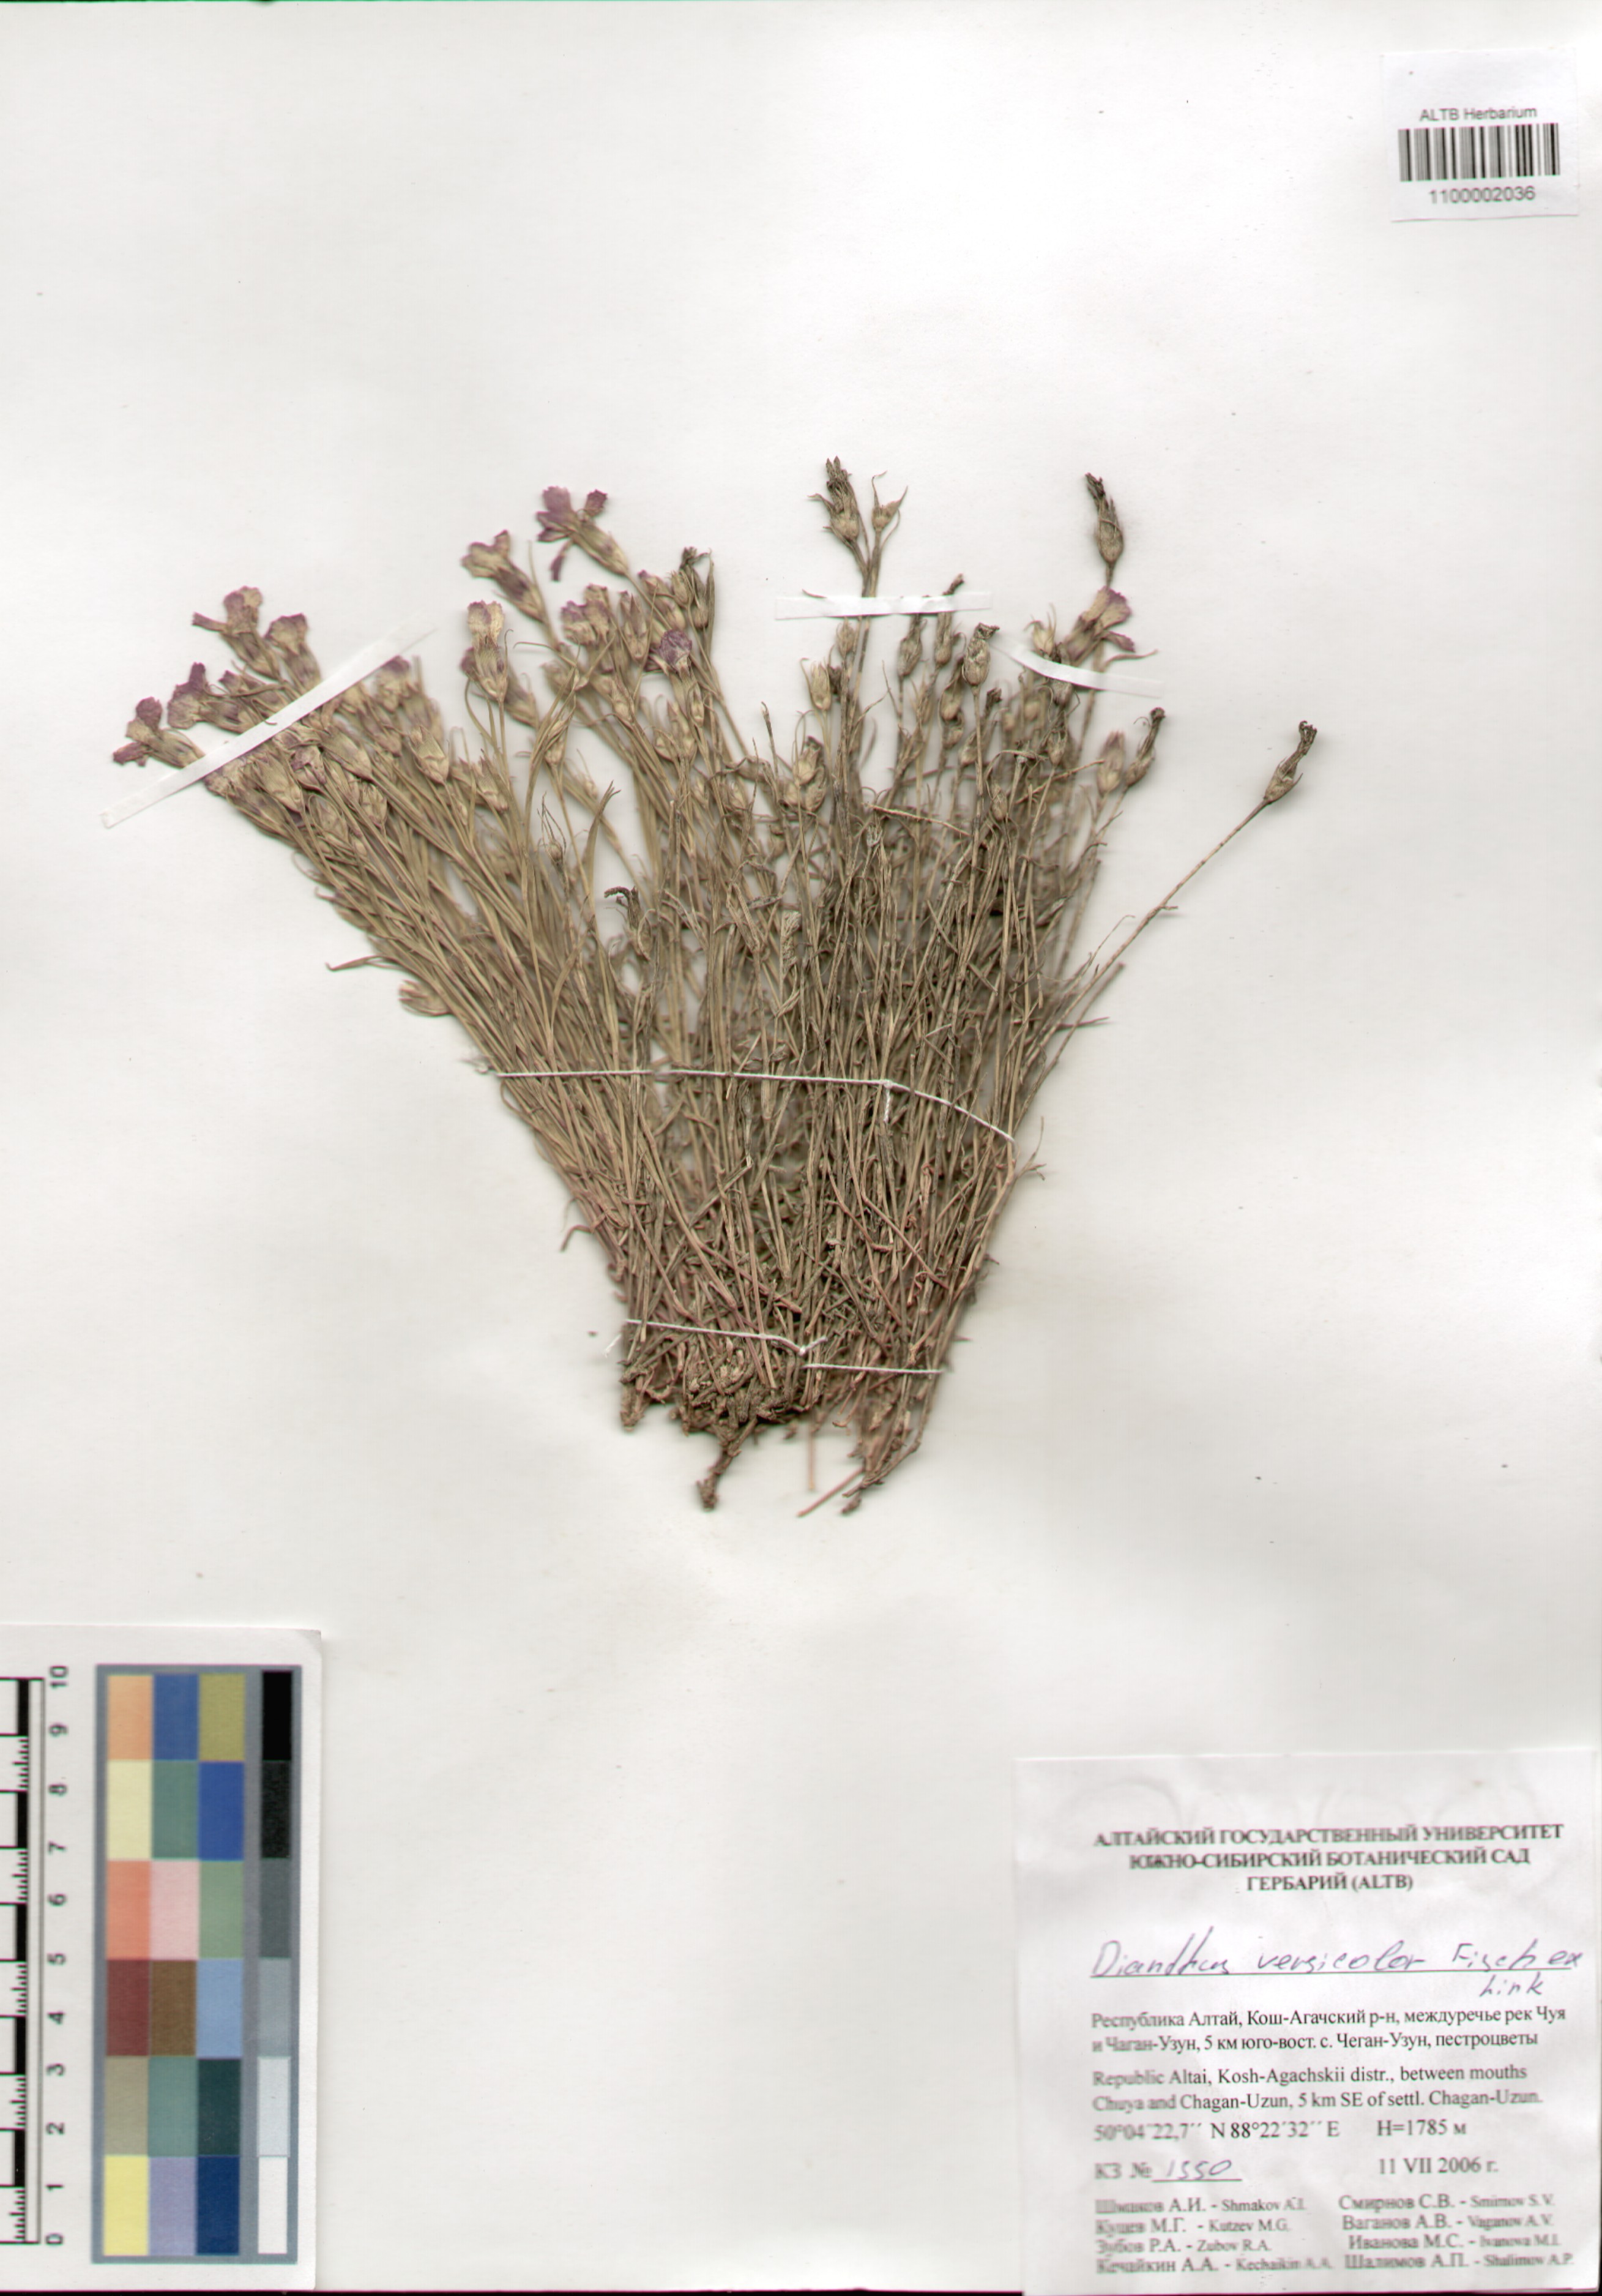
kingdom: Plantae
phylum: Tracheophyta
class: Magnoliopsida
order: Caryophyllales
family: Caryophyllaceae
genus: Dianthus
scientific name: Dianthus chinensis
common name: Rainbow pink
